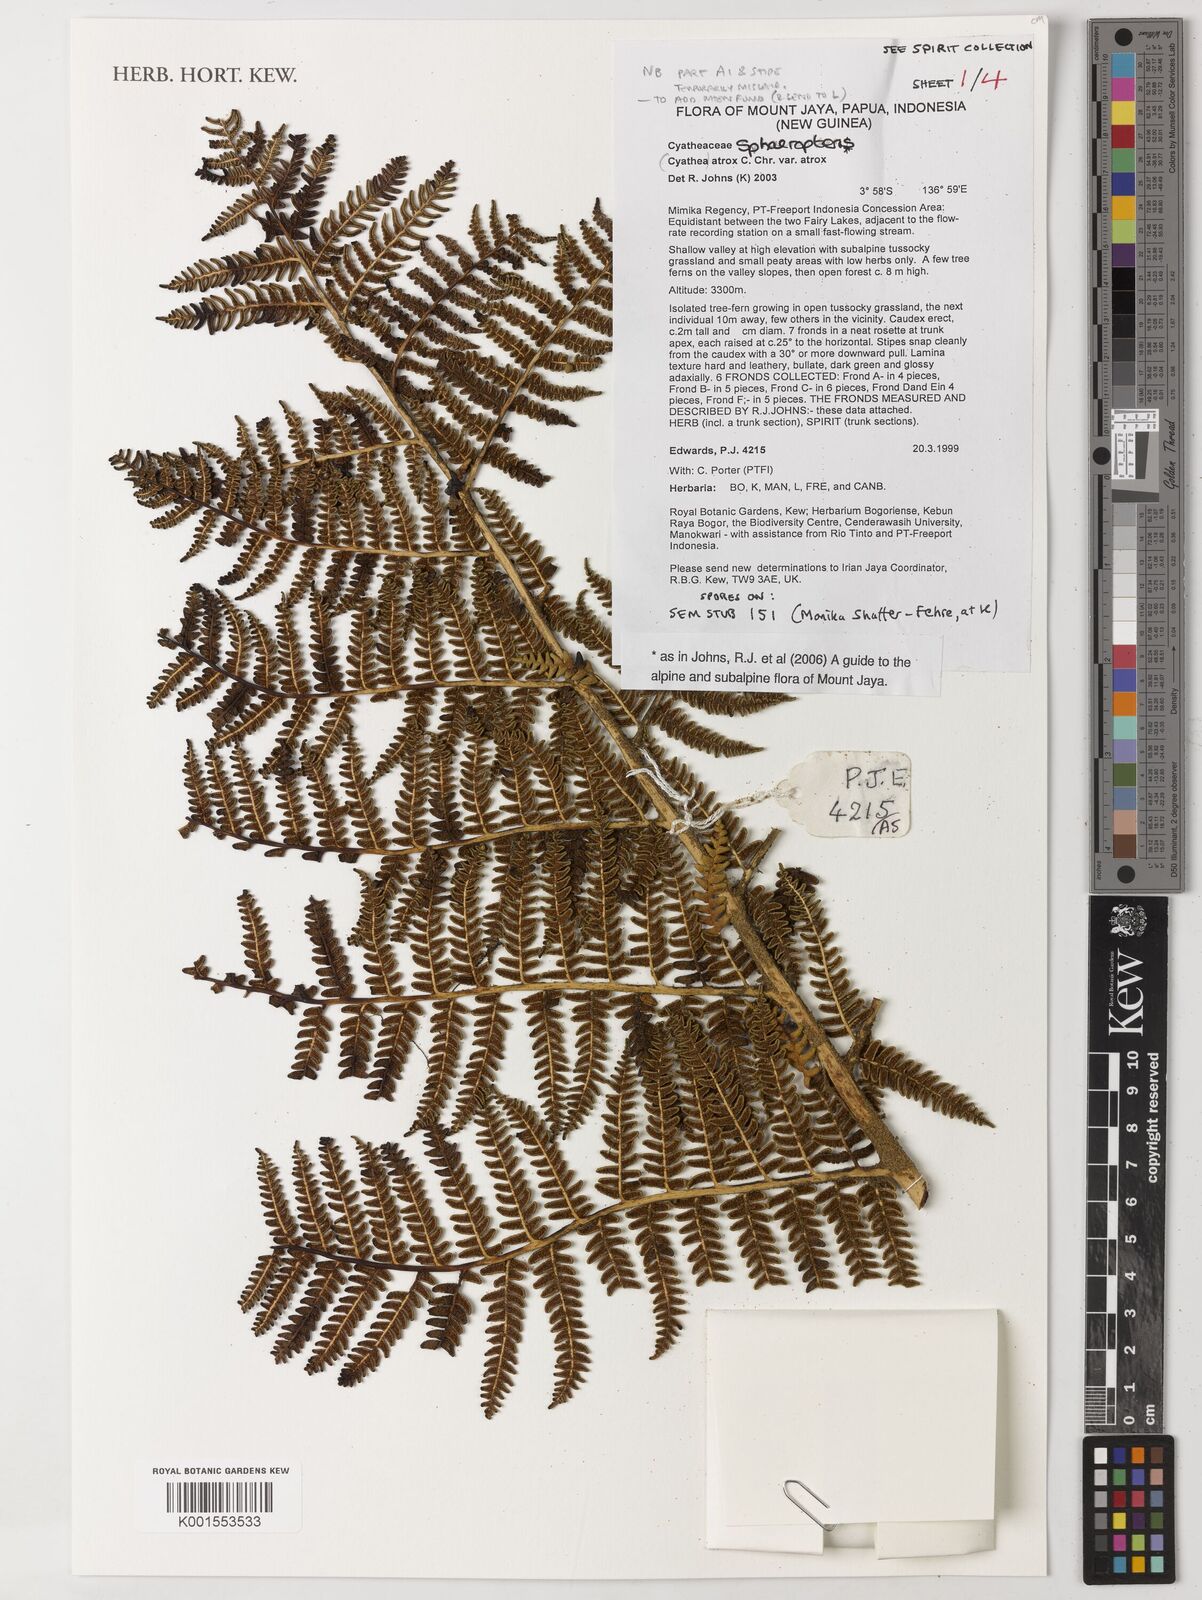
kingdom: Plantae
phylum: Tracheophyta
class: Polypodiopsida
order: Cyatheales
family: Cyatheaceae
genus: Sphaeropteris
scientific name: Sphaeropteris atrox
